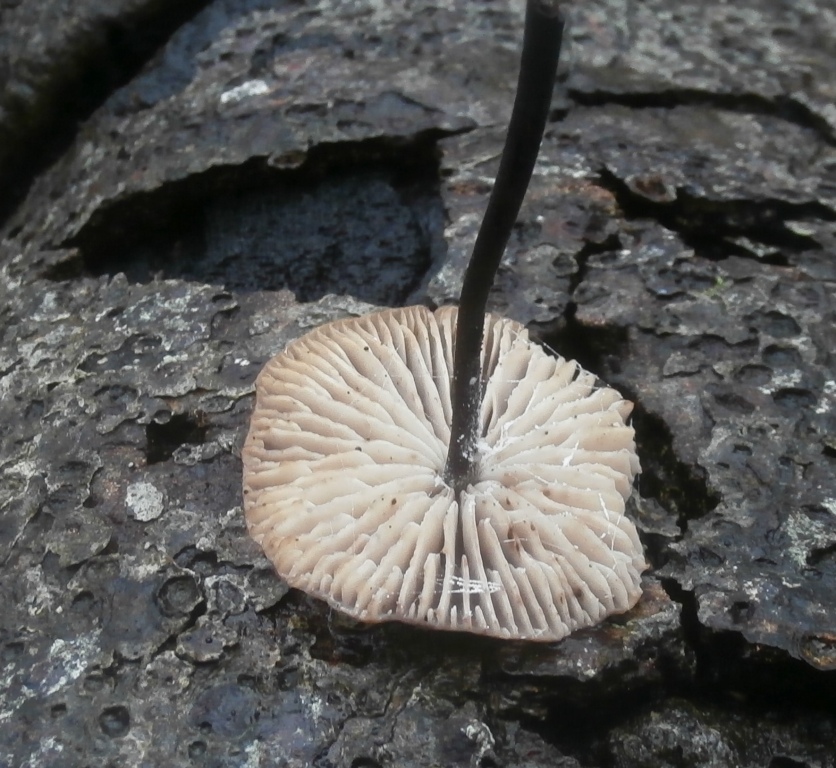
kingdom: Fungi
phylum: Basidiomycota
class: Agaricomycetes
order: Agaricales
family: Omphalotaceae
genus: Mycetinis
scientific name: Mycetinis alliaceus
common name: stor løghat
